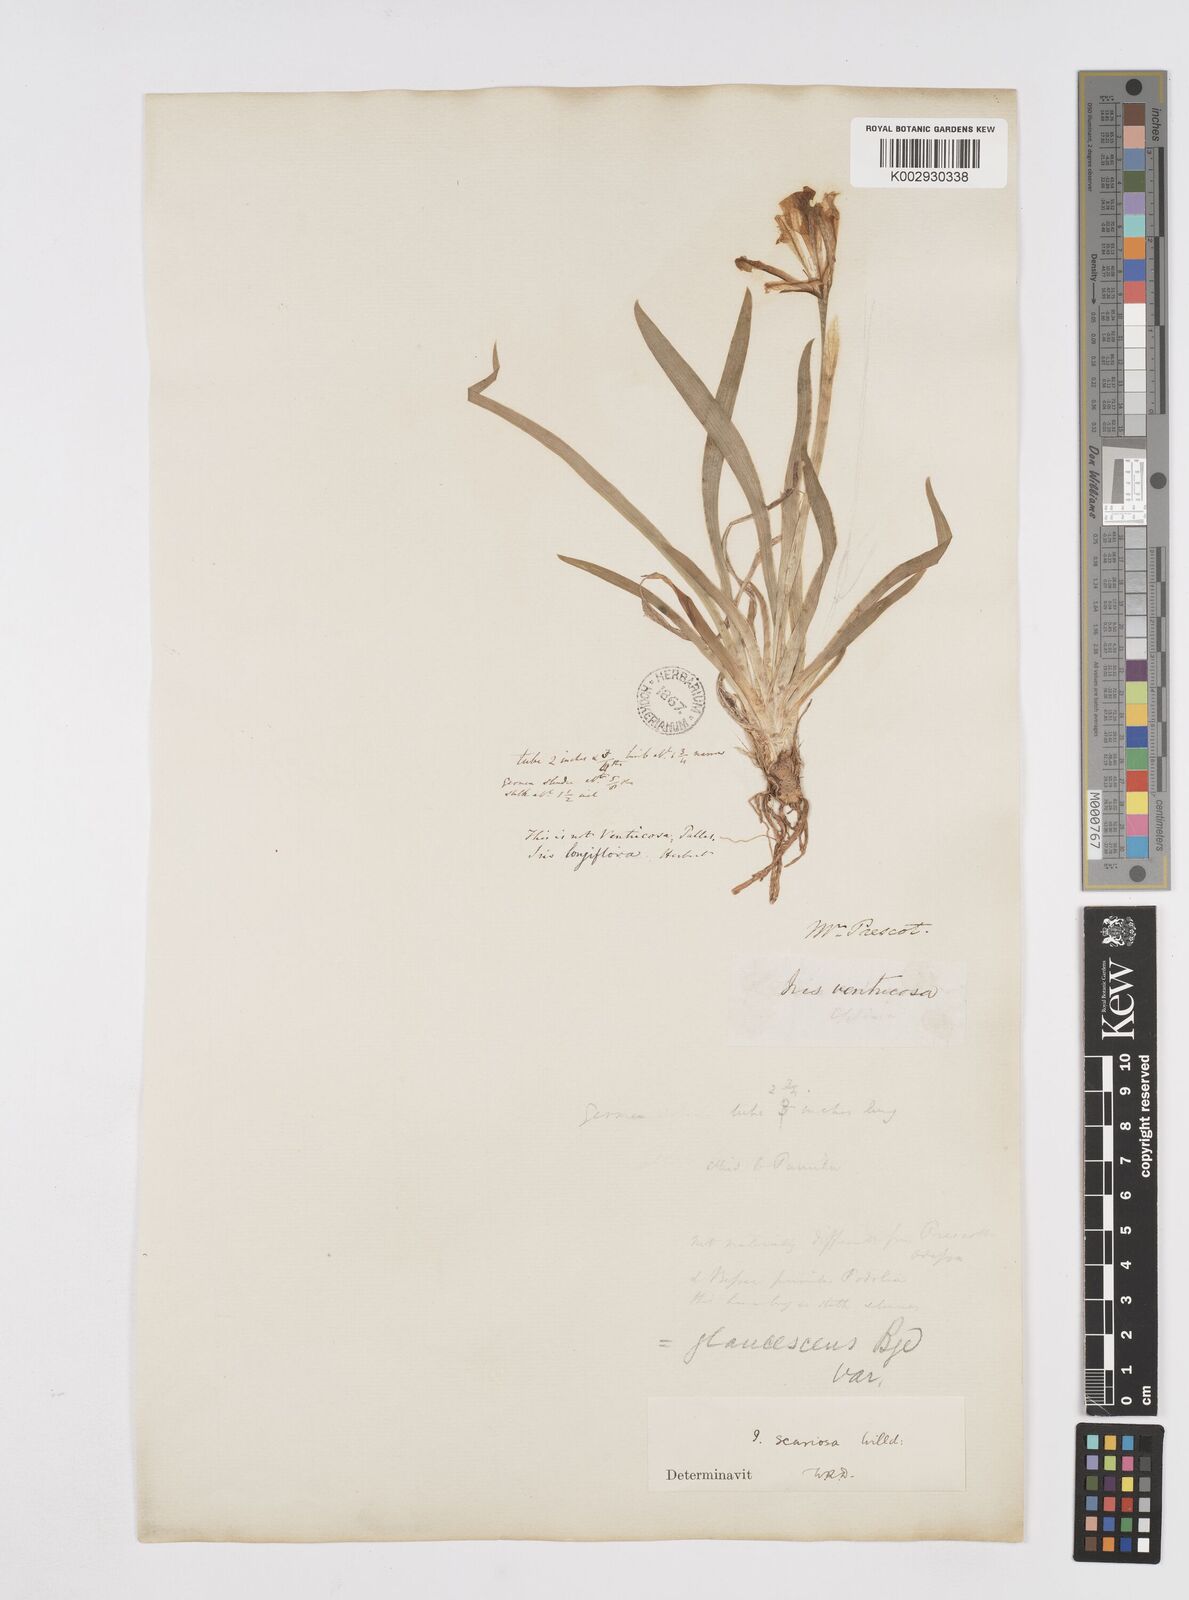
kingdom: Plantae
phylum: Tracheophyta
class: Liliopsida
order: Asparagales
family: Iridaceae
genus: Iris
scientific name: Iris scariosa
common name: Membrane-bract iris
